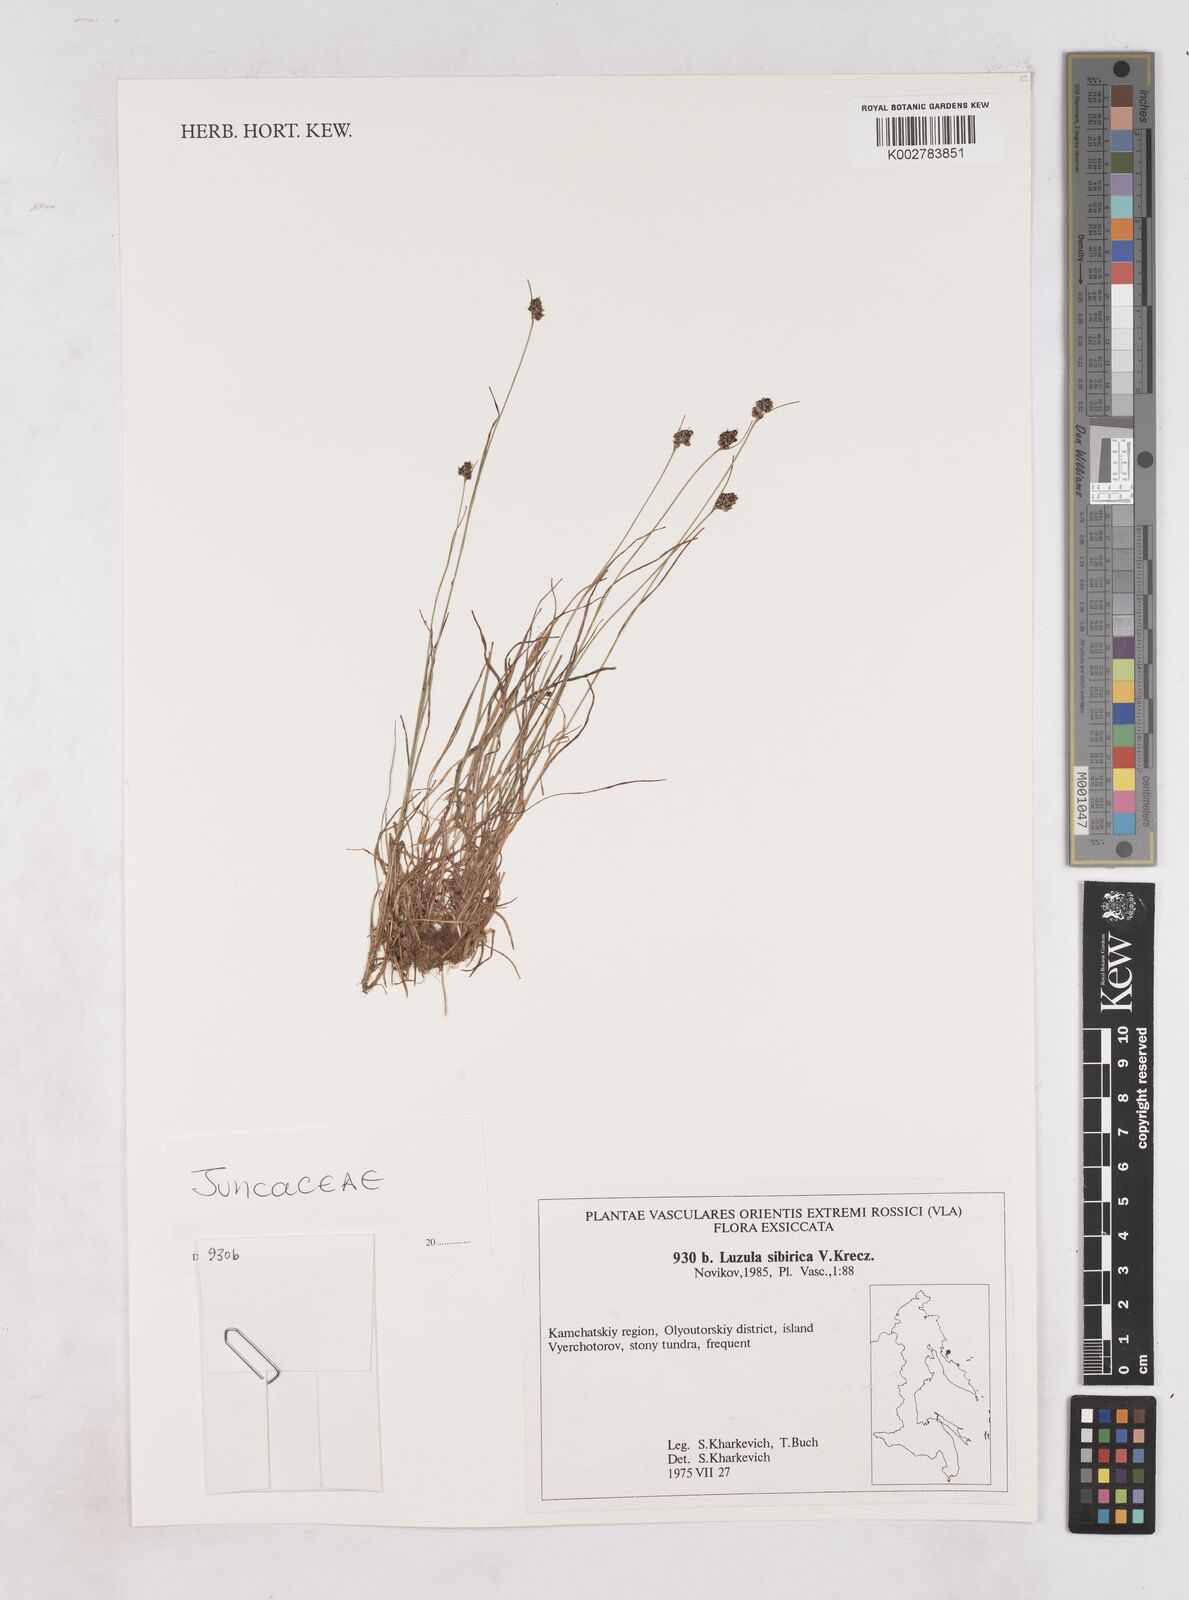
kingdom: Plantae
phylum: Tracheophyta
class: Liliopsida
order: Poales
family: Juncaceae
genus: Luzula
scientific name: Luzula multiflora
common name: Heath wood-rush
